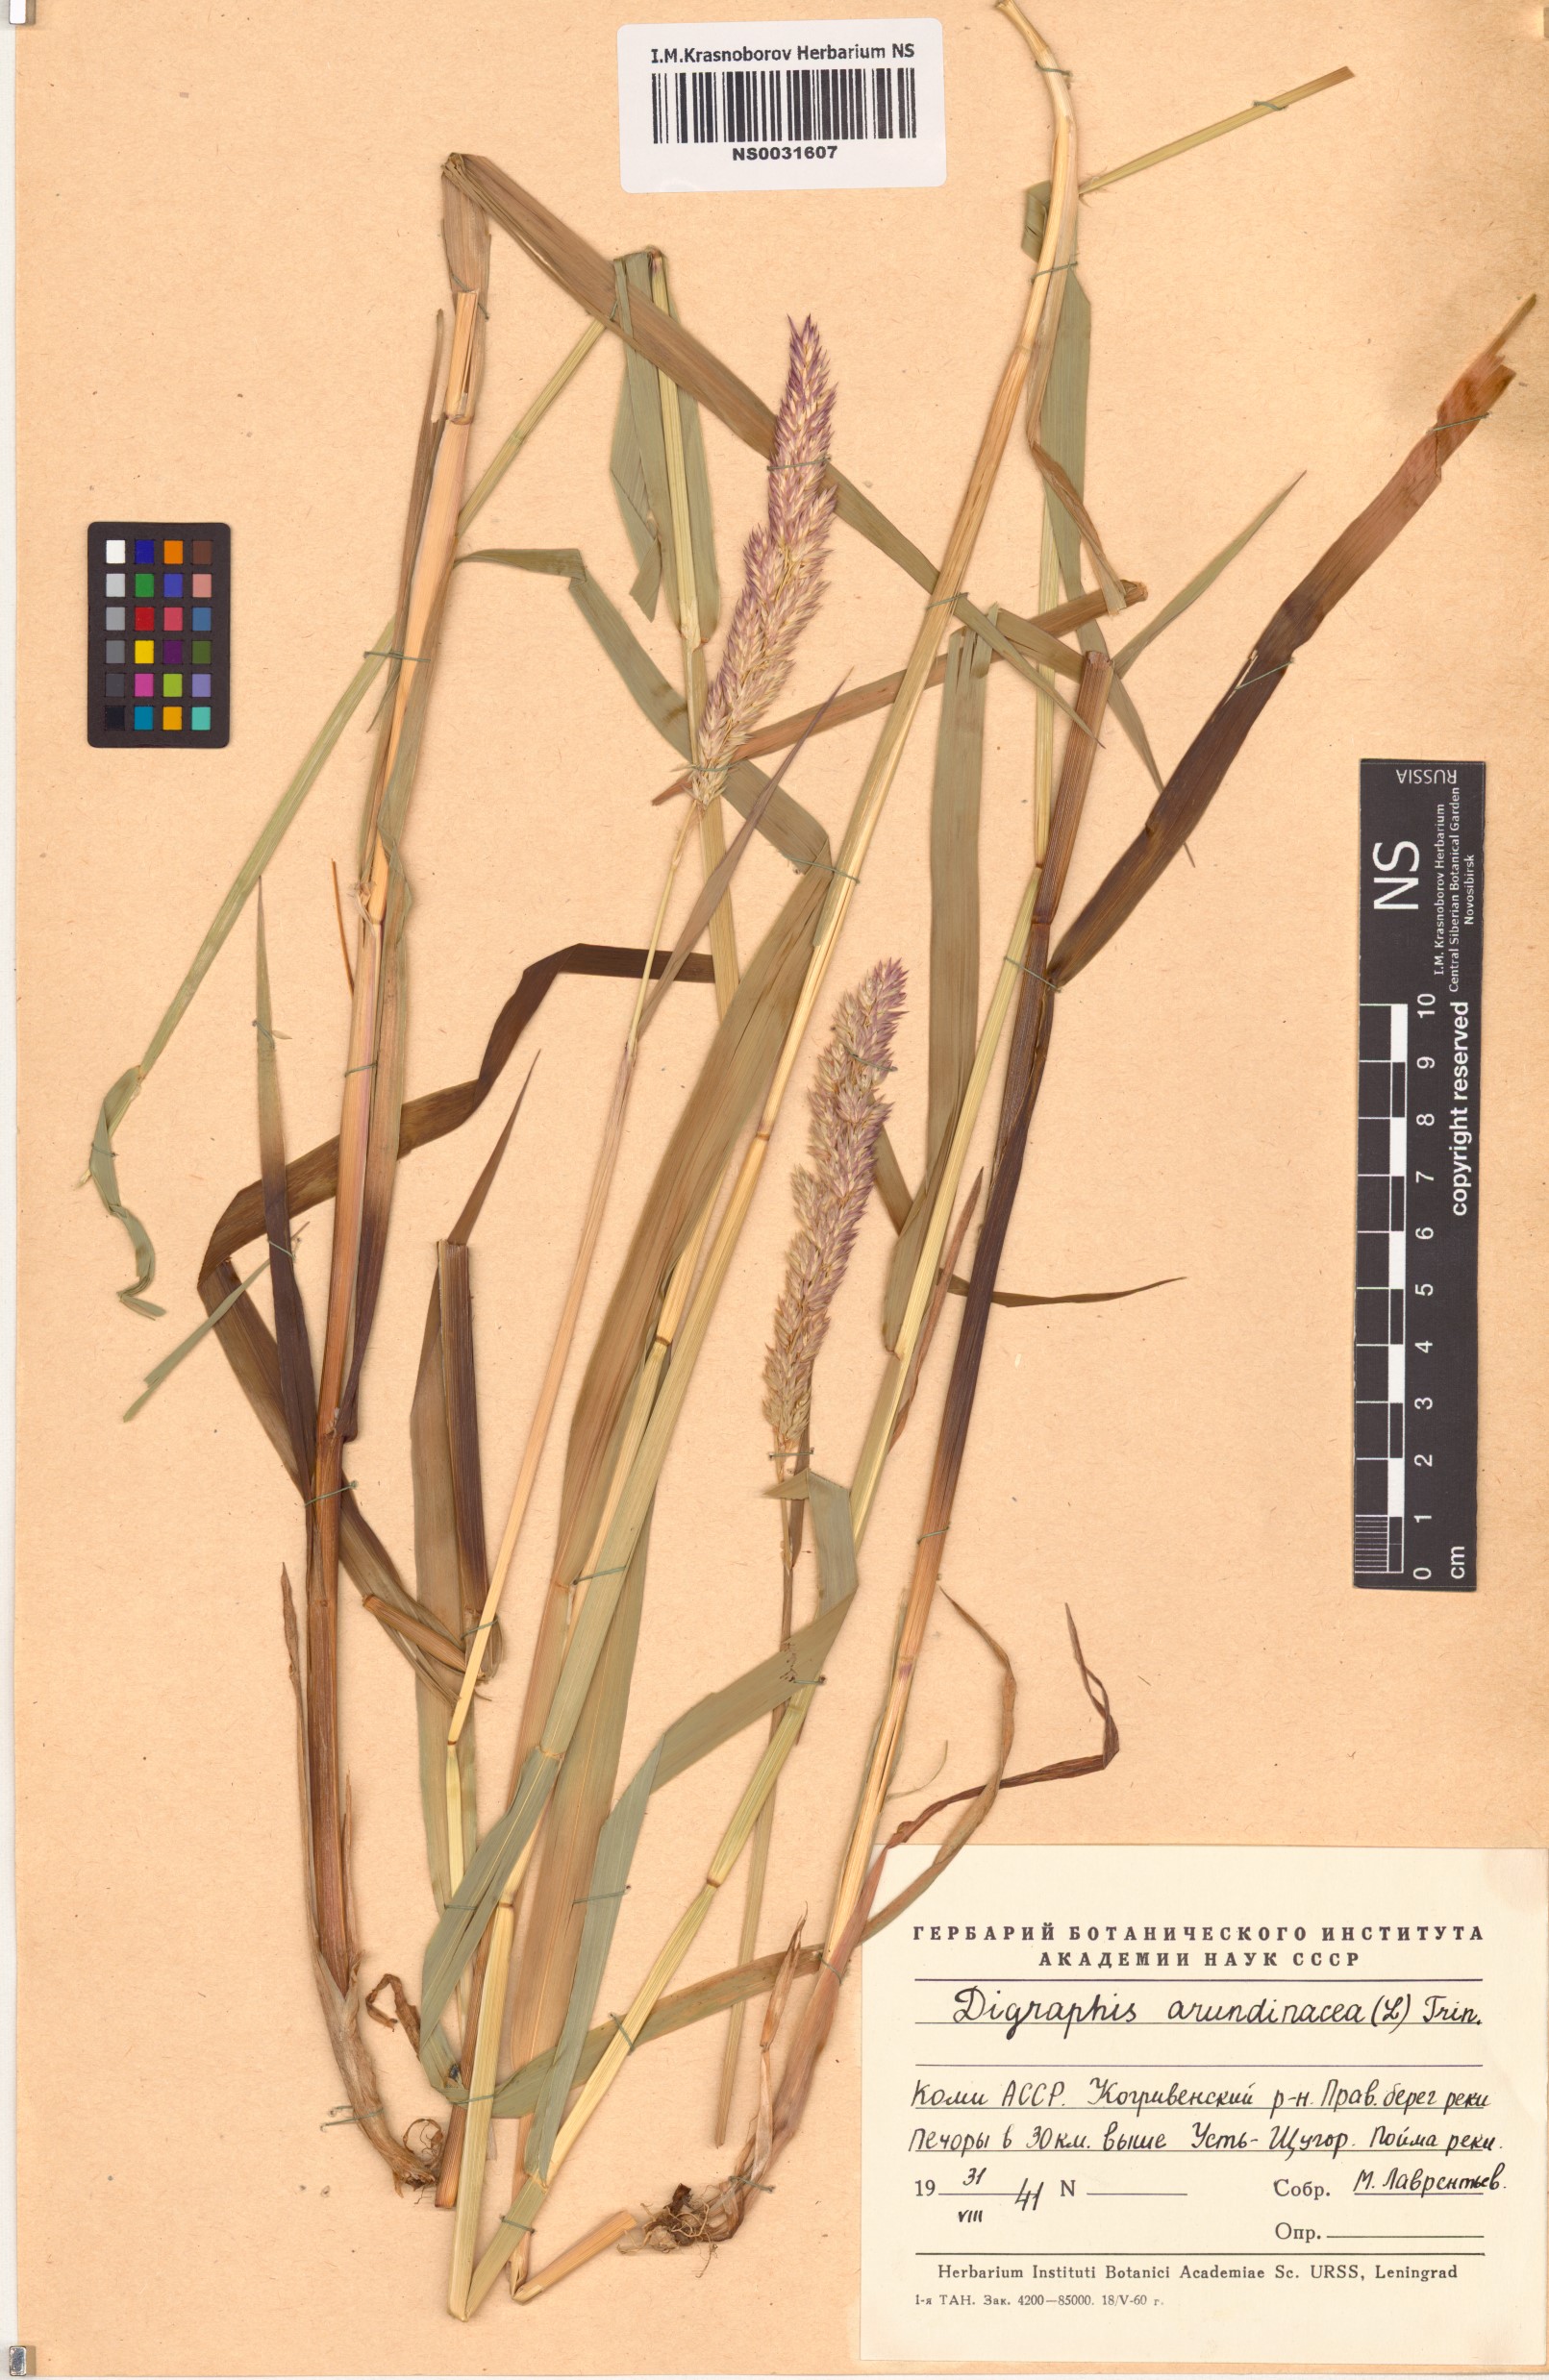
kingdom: Plantae
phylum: Tracheophyta
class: Liliopsida
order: Poales
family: Poaceae
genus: Phalaris
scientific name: Phalaris arundinacea
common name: Reed canary-grass
